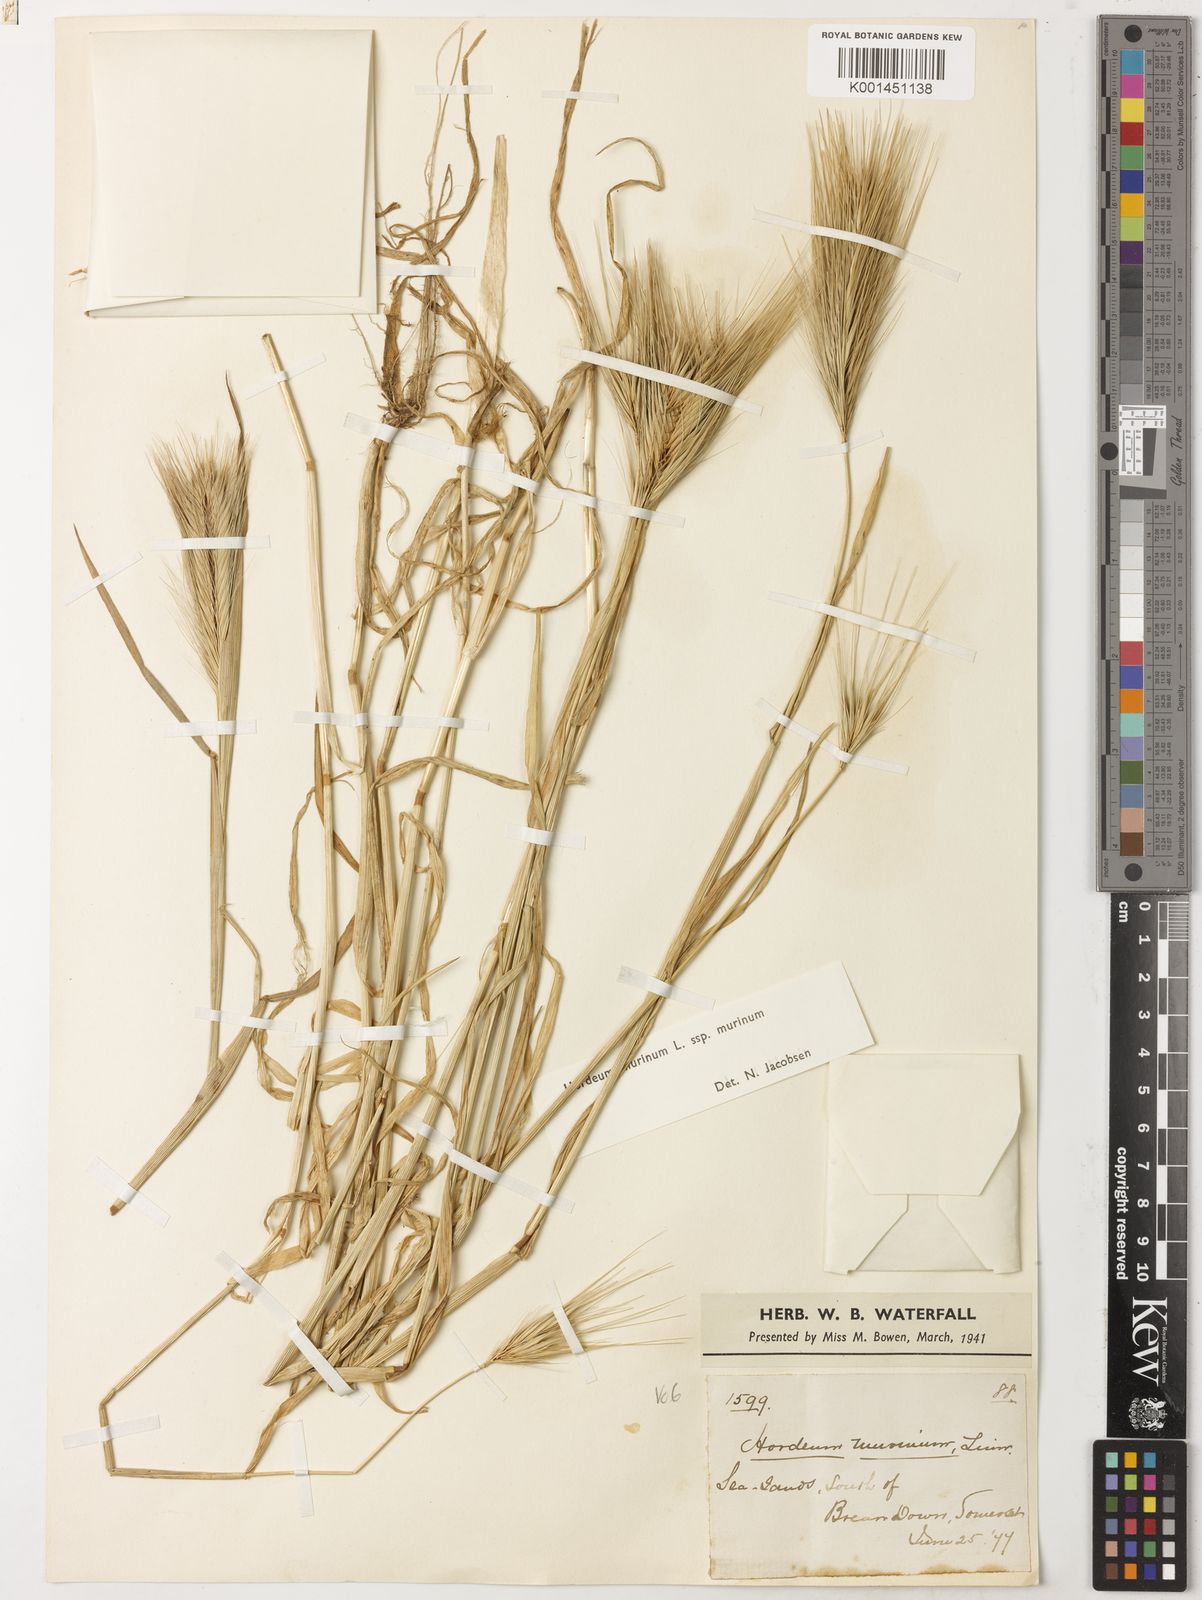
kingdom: Plantae
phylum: Tracheophyta
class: Liliopsida
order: Poales
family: Poaceae
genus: Hordeum
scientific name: Hordeum murinum
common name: Wall barley
